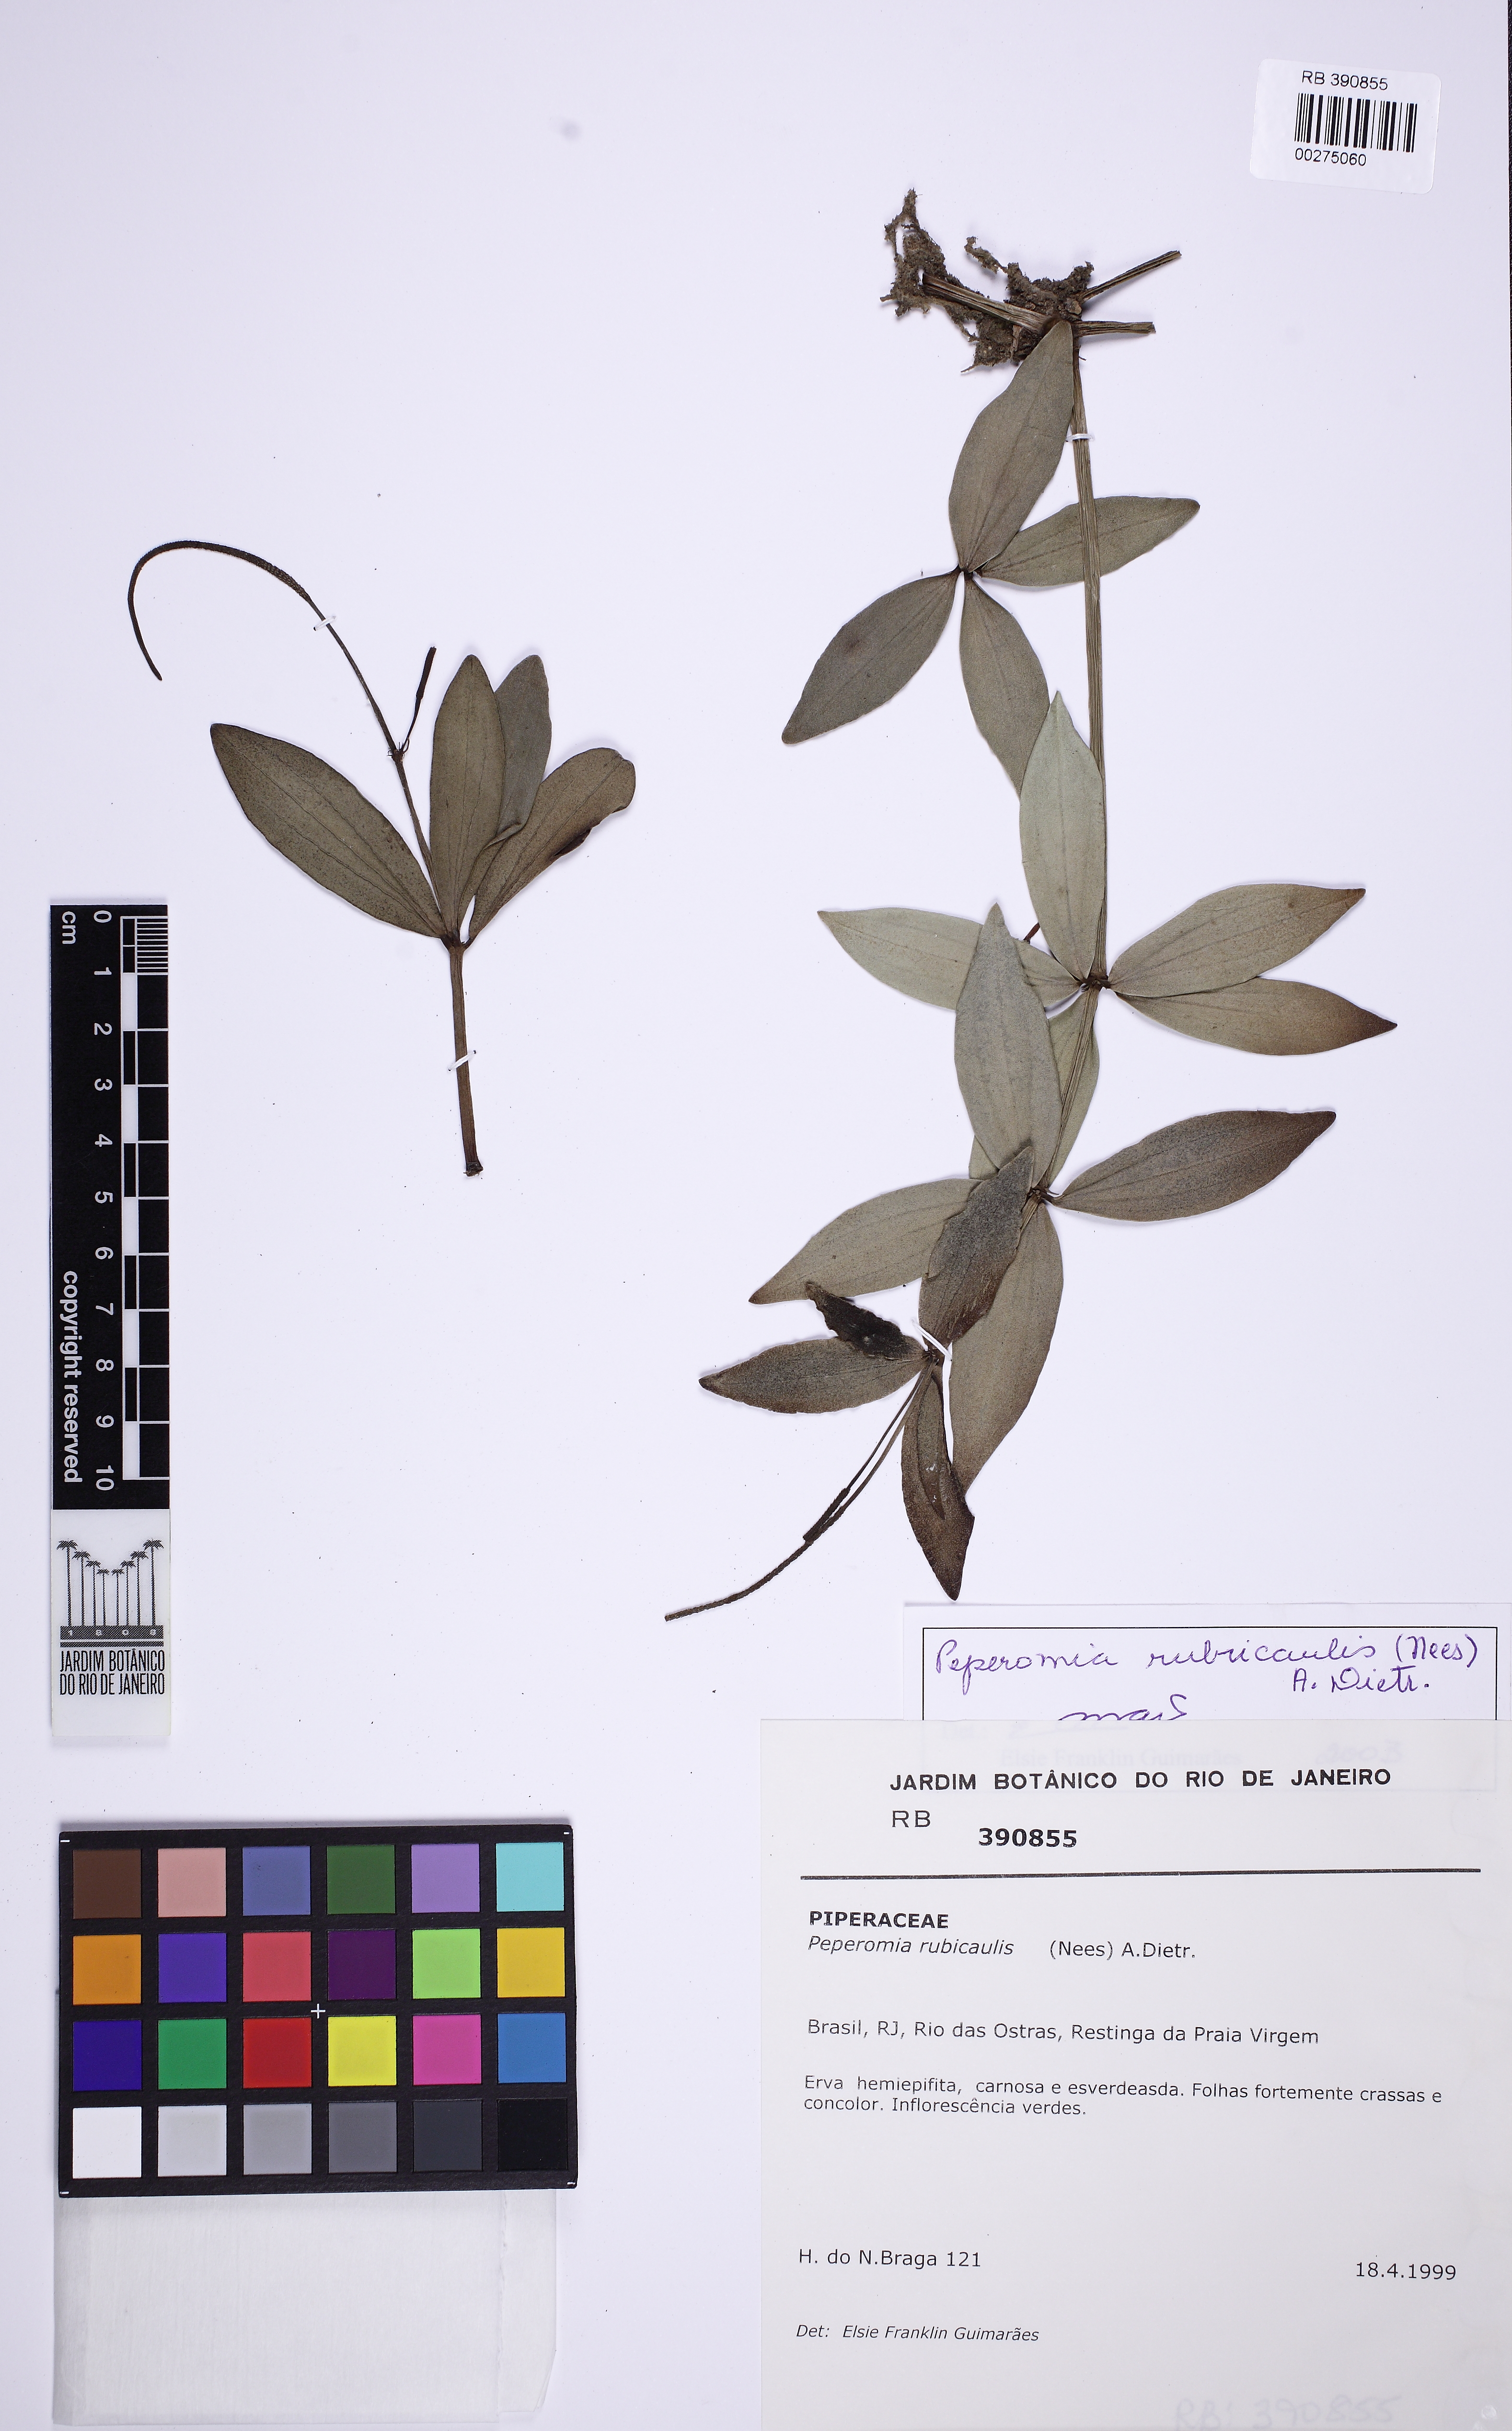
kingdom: Plantae
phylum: Tracheophyta
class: Magnoliopsida
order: Piperales
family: Piperaceae
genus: Peperomia
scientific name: Peperomia hirtellicaulis
